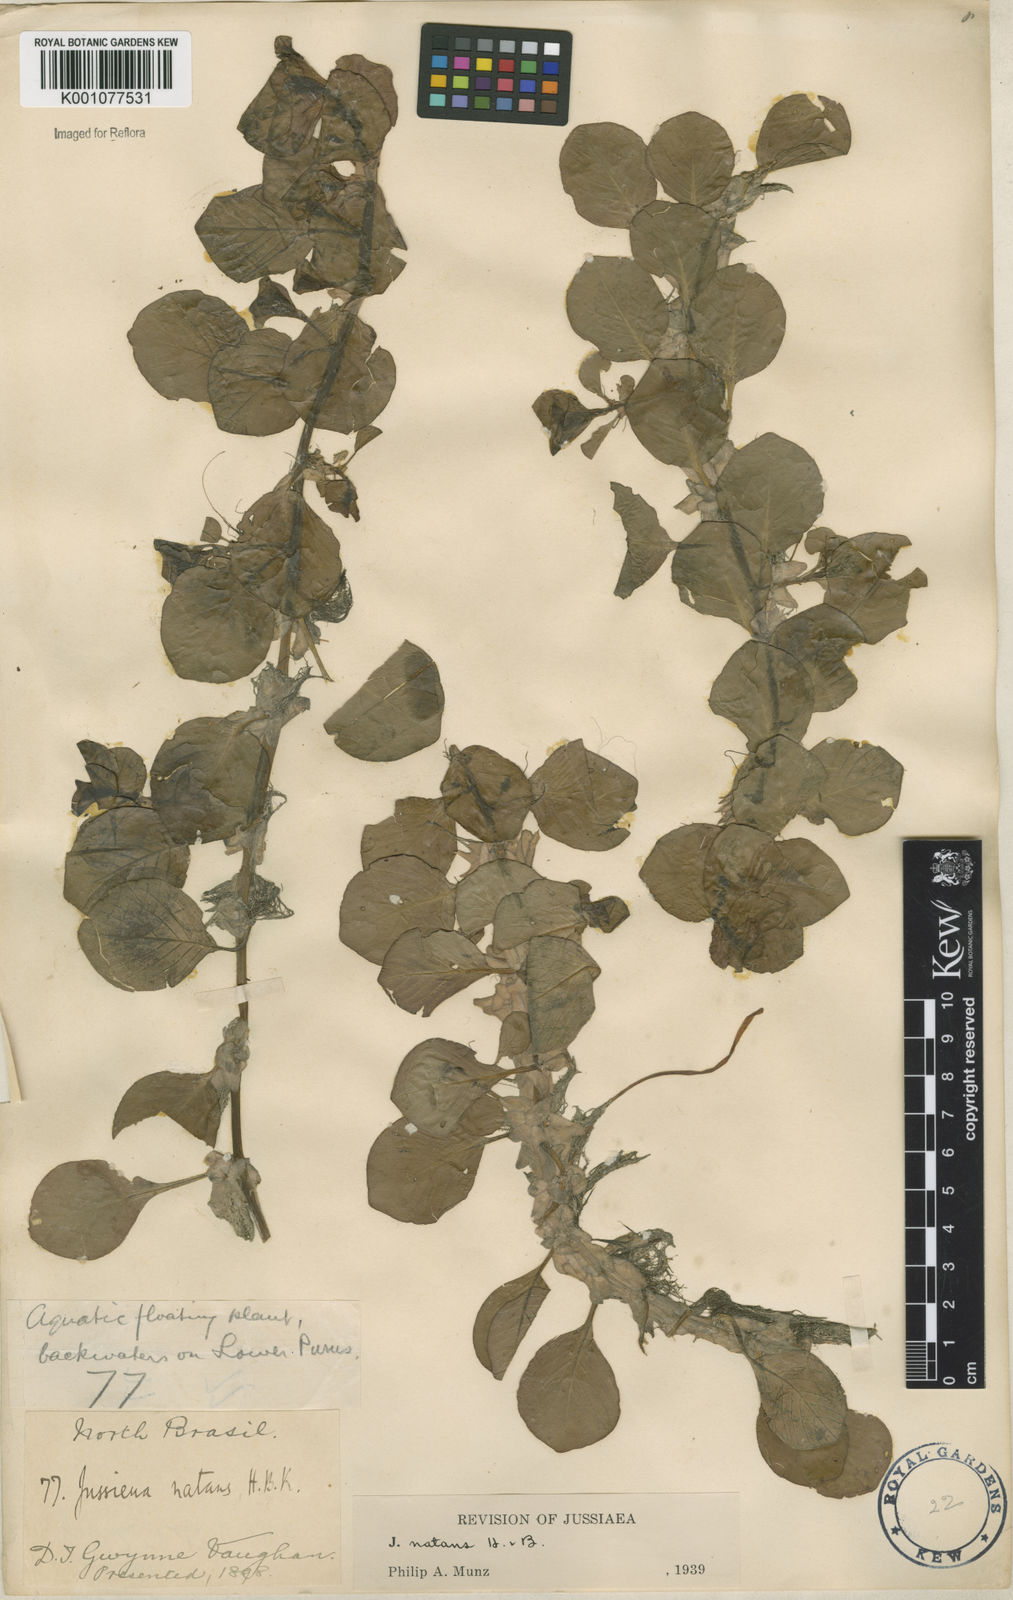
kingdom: Plantae
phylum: Tracheophyta
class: Magnoliopsida
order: Myrtales
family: Onagraceae
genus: Ludwigia
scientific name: Ludwigia helminthorrhiza
